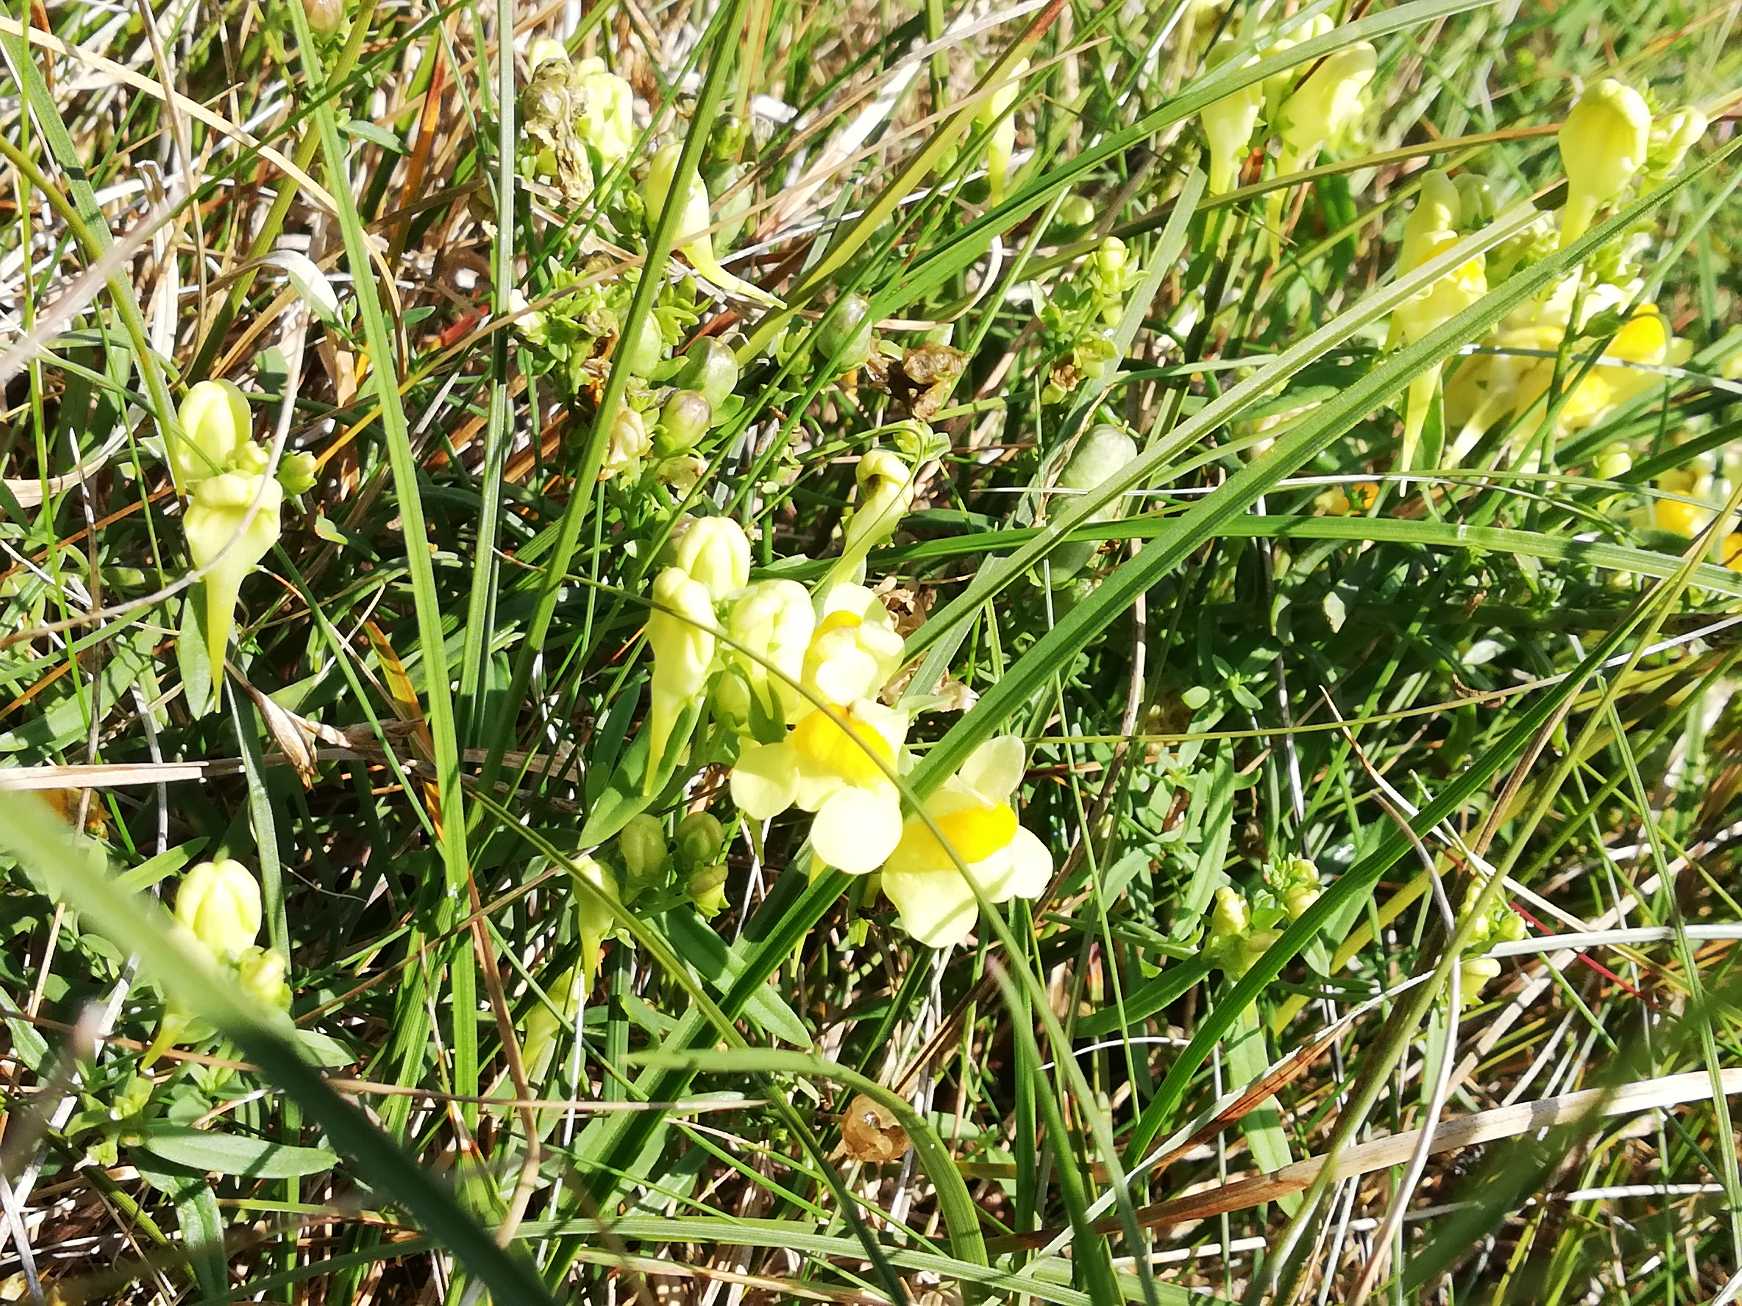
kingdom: Plantae
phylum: Tracheophyta
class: Magnoliopsida
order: Lamiales
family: Plantaginaceae
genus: Linaria
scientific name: Linaria vulgaris
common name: Almindelig torskemund
